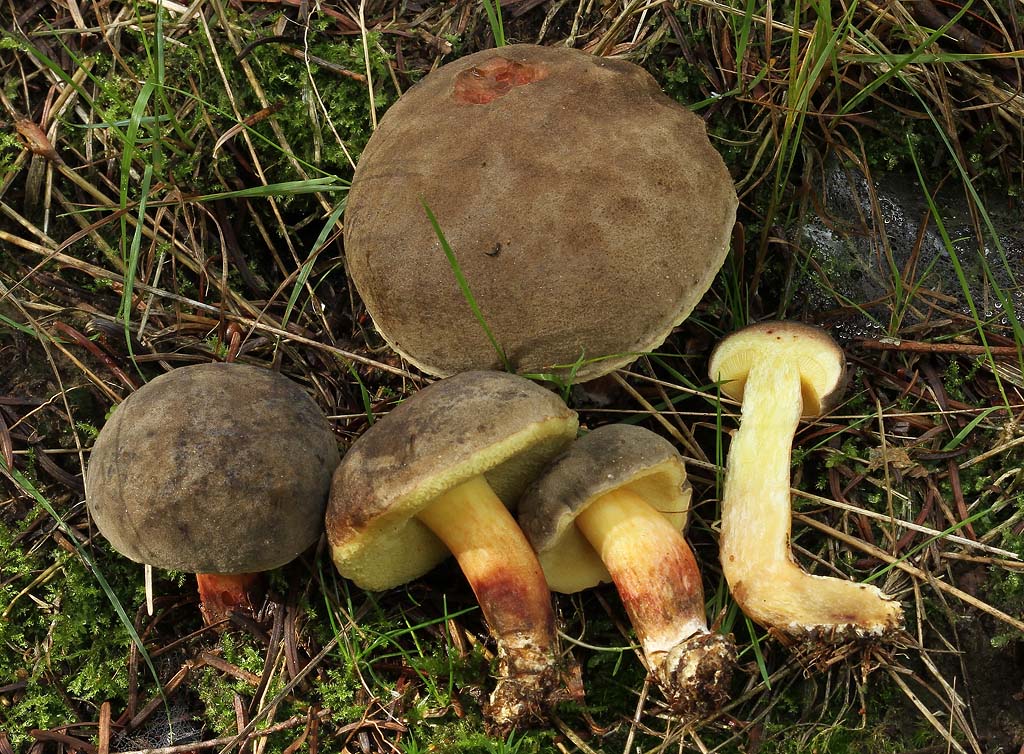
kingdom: Fungi
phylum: Basidiomycota
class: Agaricomycetes
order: Boletales
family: Boletaceae
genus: Xerocomellus
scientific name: Xerocomellus pruinatus
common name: dugget rørhat
